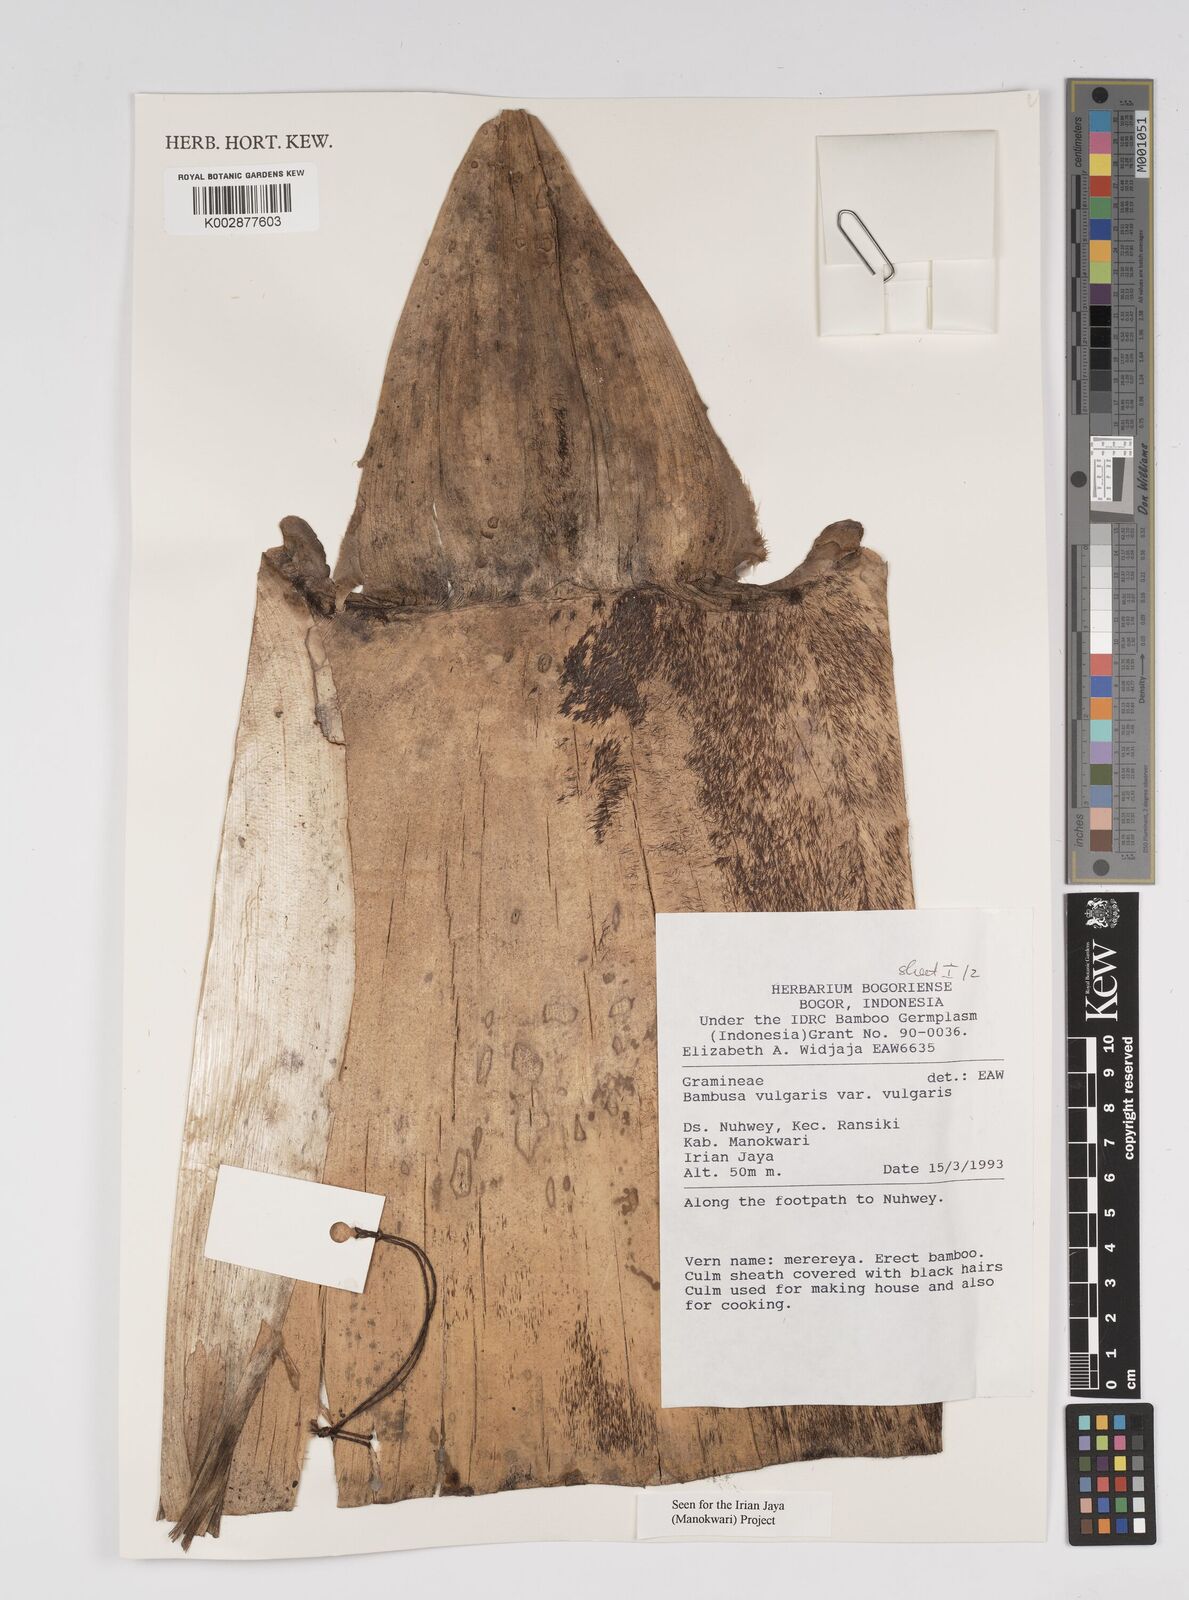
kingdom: Plantae
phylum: Tracheophyta
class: Liliopsida
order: Poales
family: Poaceae
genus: Bambusa
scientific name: Bambusa balcooa
